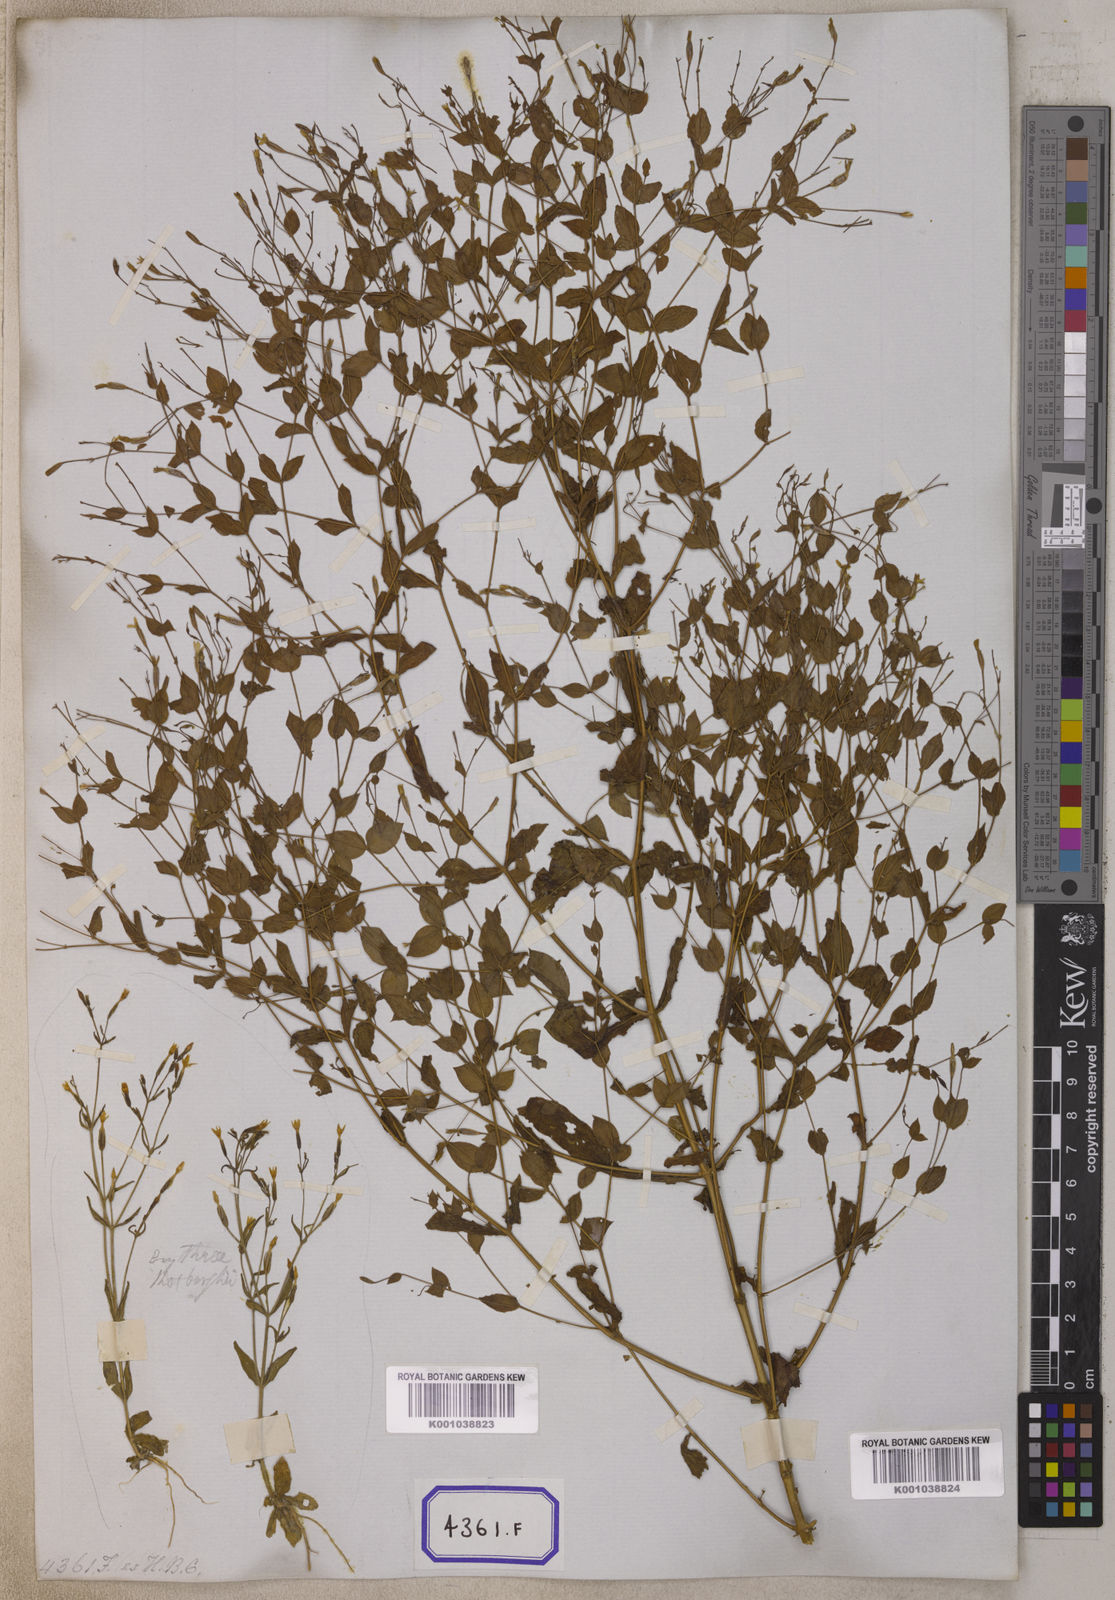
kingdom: Plantae
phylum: Tracheophyta
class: Magnoliopsida
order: Gentianales
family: Gentianaceae
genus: Canscora
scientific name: Canscora
